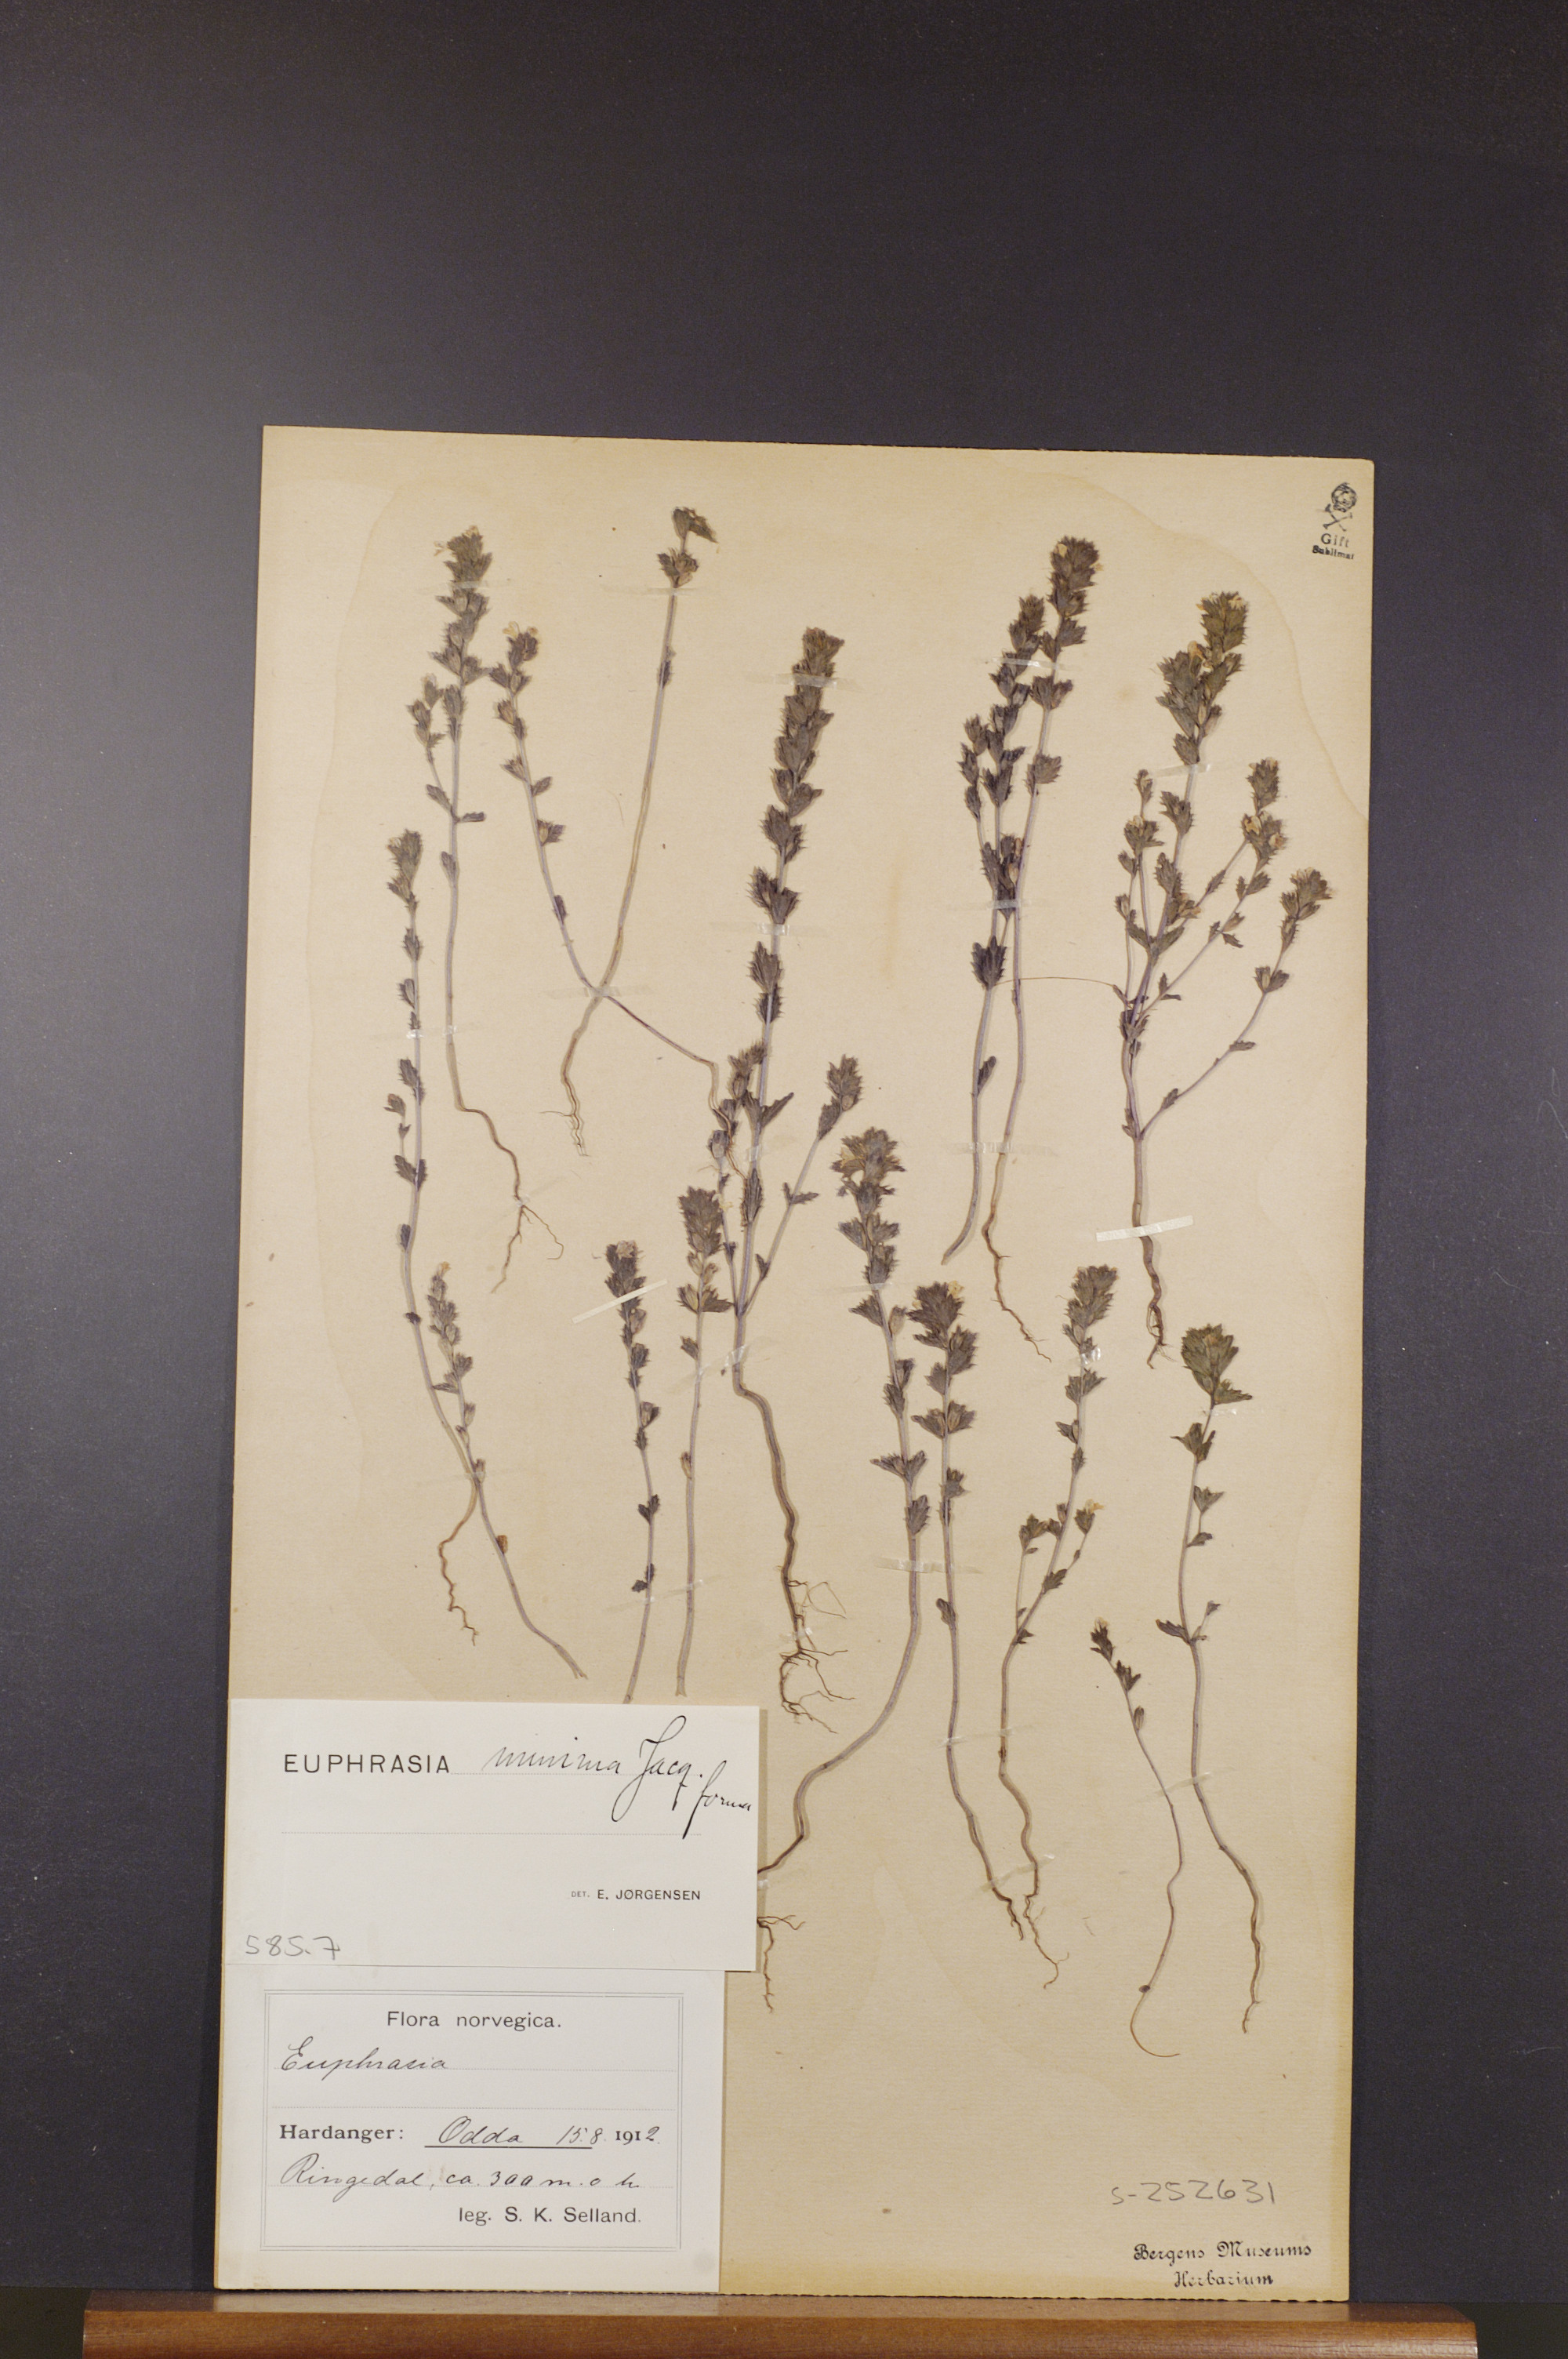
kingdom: Plantae
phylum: Tracheophyta
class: Magnoliopsida
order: Lamiales
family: Orobanchaceae
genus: Euphrasia
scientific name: Euphrasia minima
